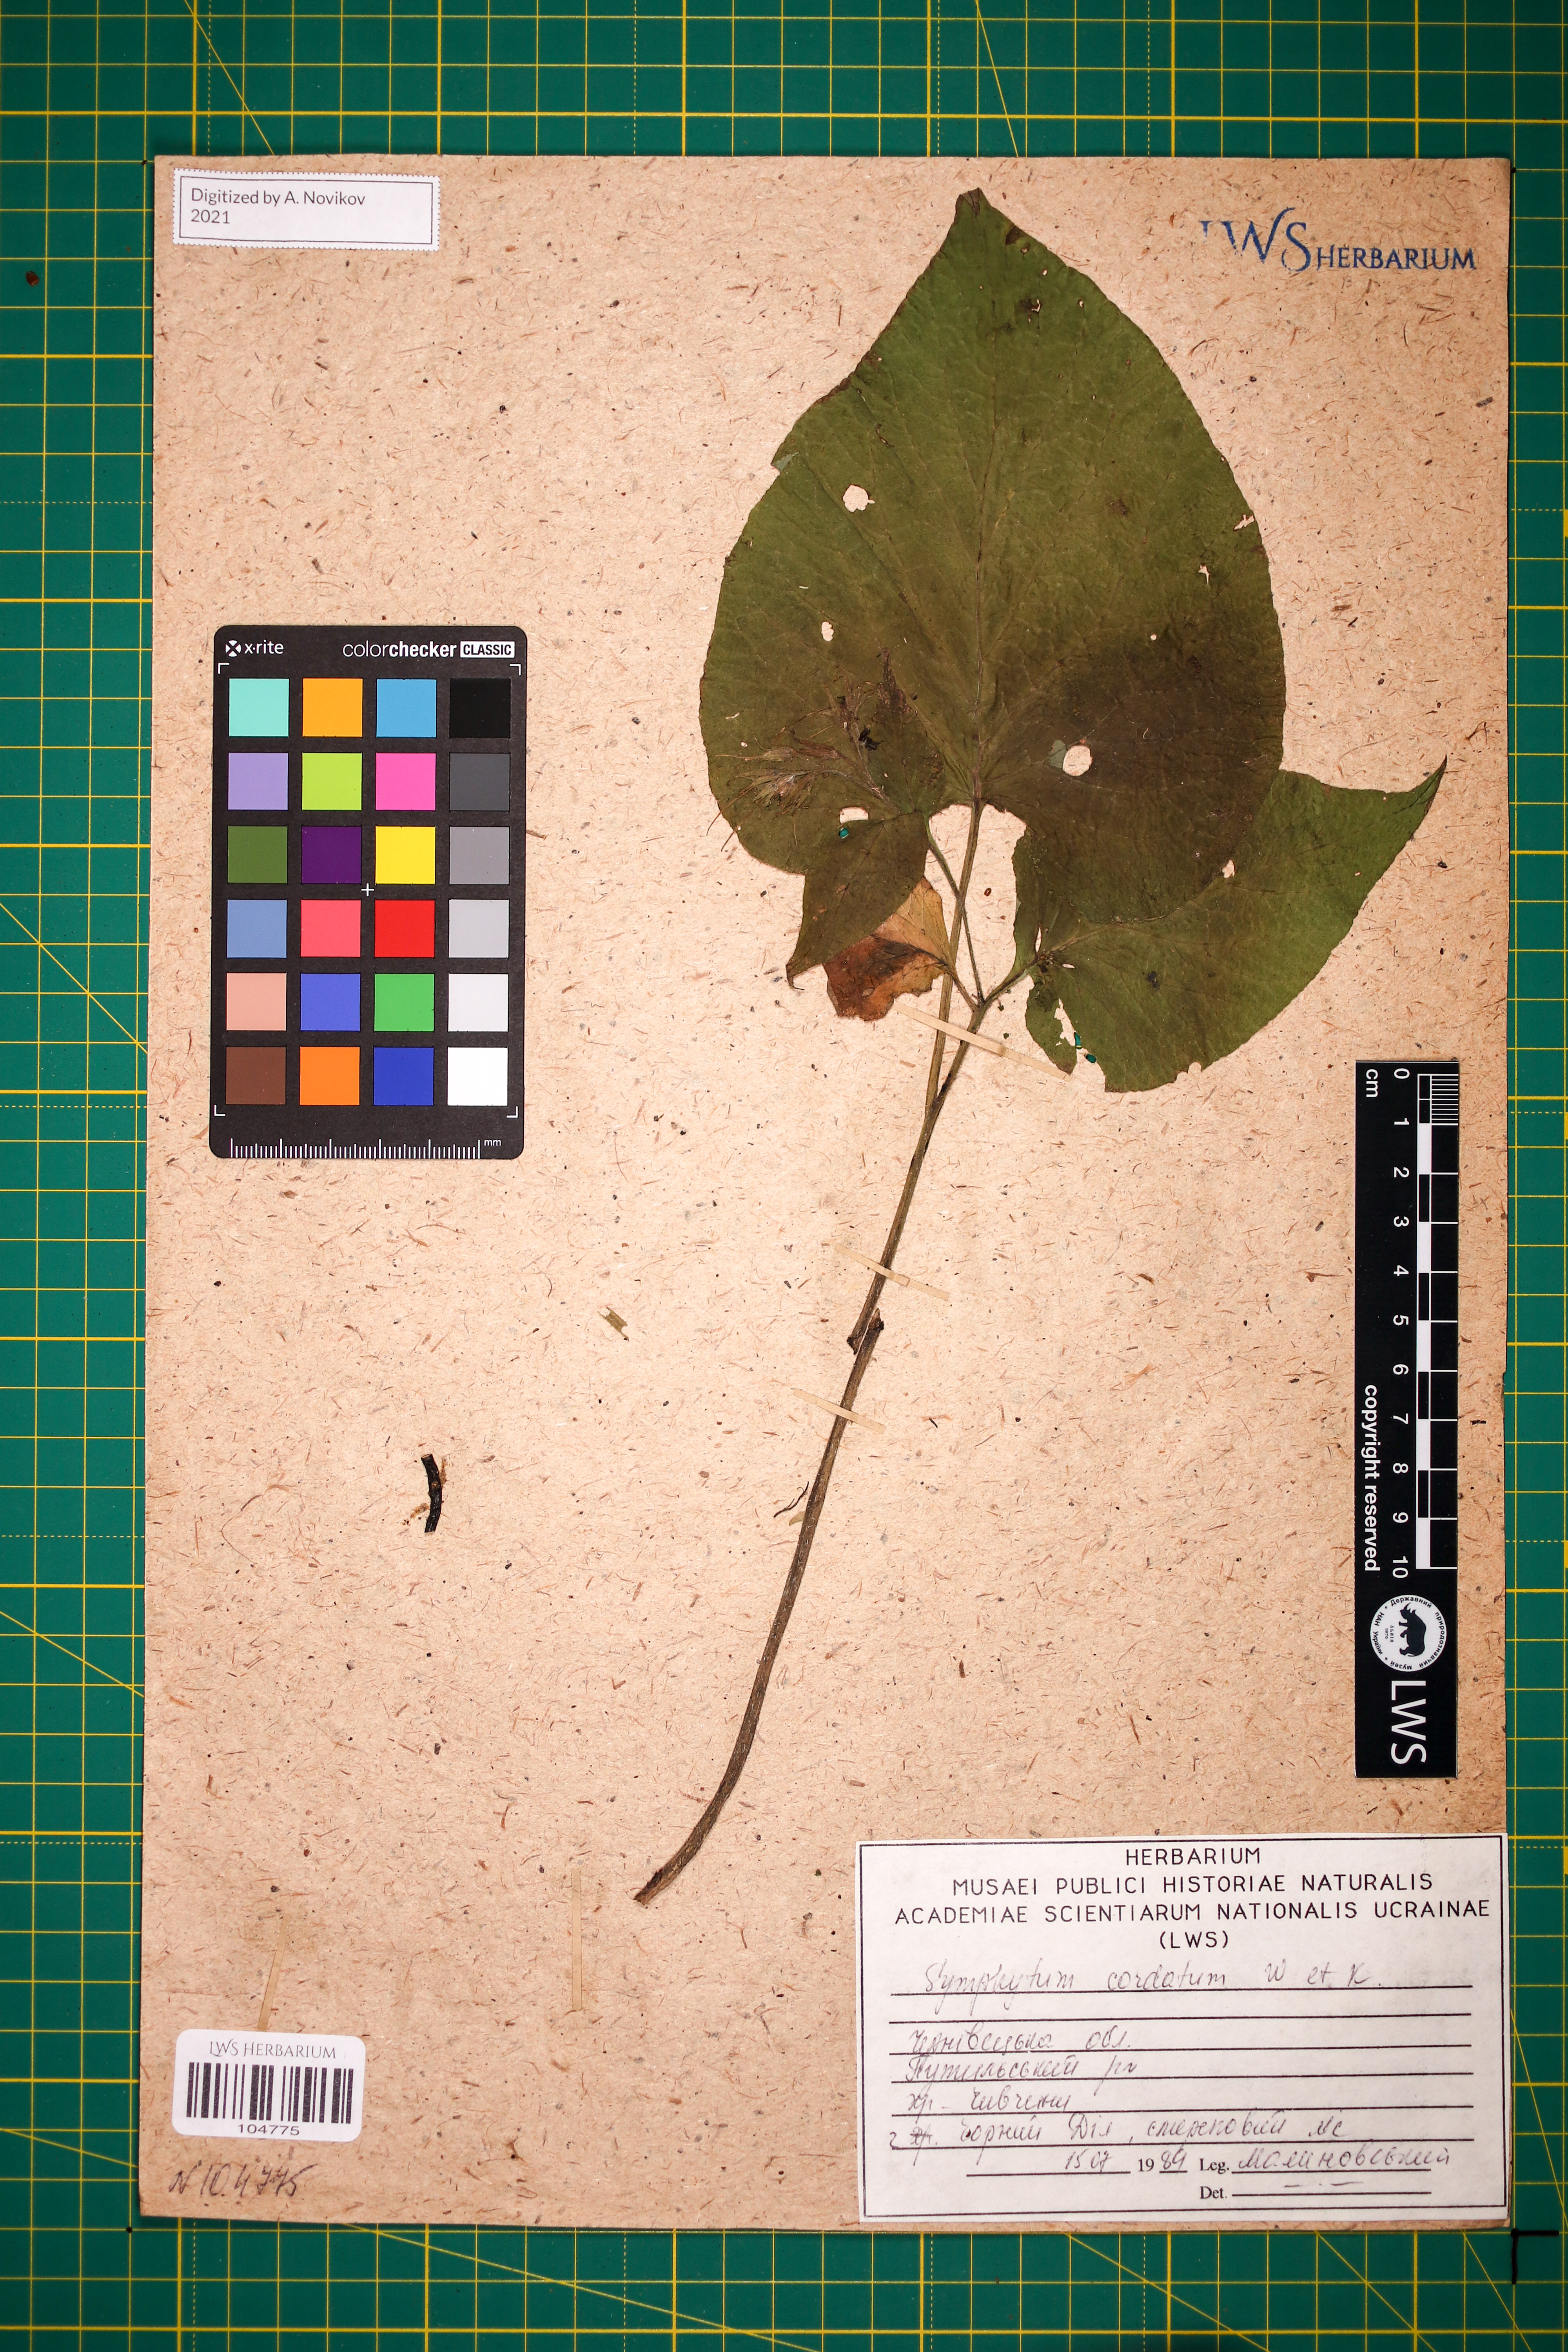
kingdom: Plantae
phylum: Tracheophyta
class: Magnoliopsida
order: Boraginales
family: Boraginaceae
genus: Symphytum
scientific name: Symphytum cordatum
